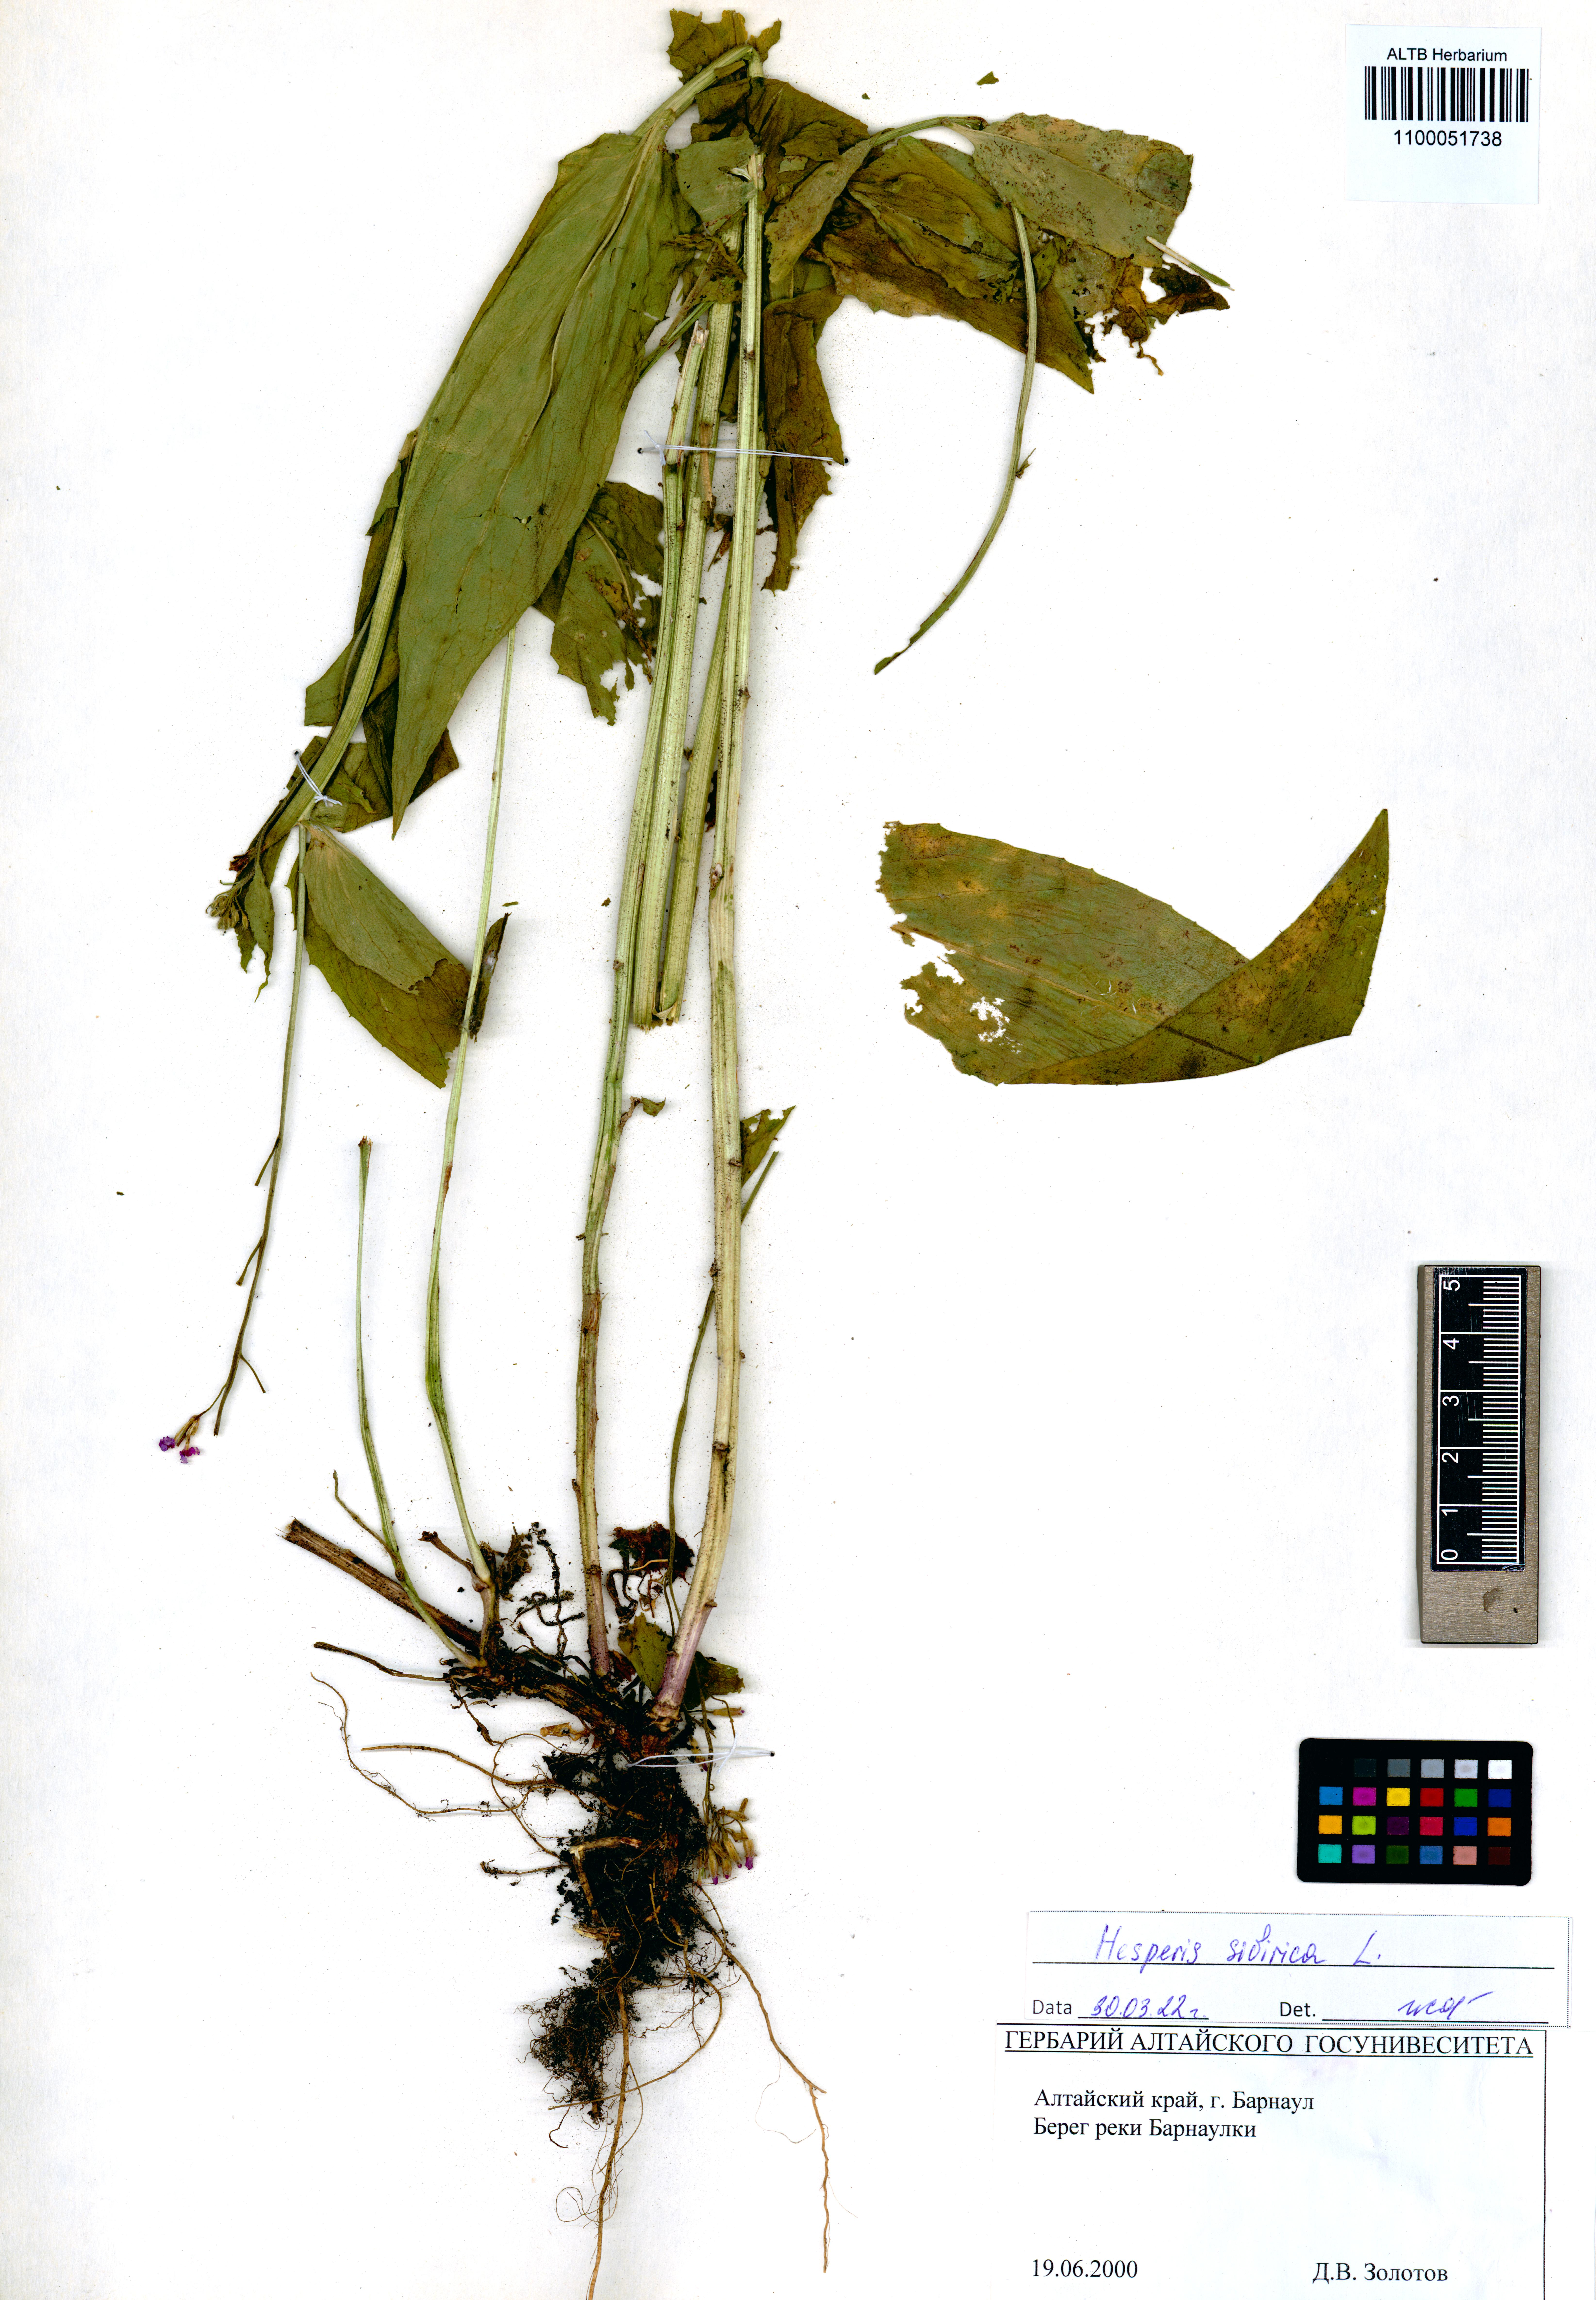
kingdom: Plantae
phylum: Tracheophyta
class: Magnoliopsida
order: Brassicales
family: Brassicaceae
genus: Hesperis
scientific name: Hesperis sibirica
